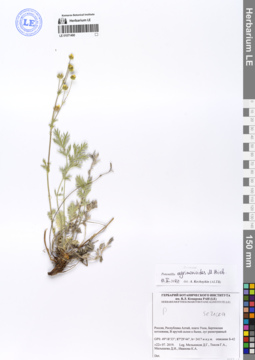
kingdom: Plantae
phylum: Tracheophyta
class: Magnoliopsida
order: Rosales
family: Rosaceae
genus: Potentilla
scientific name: Potentilla agrimonioides
